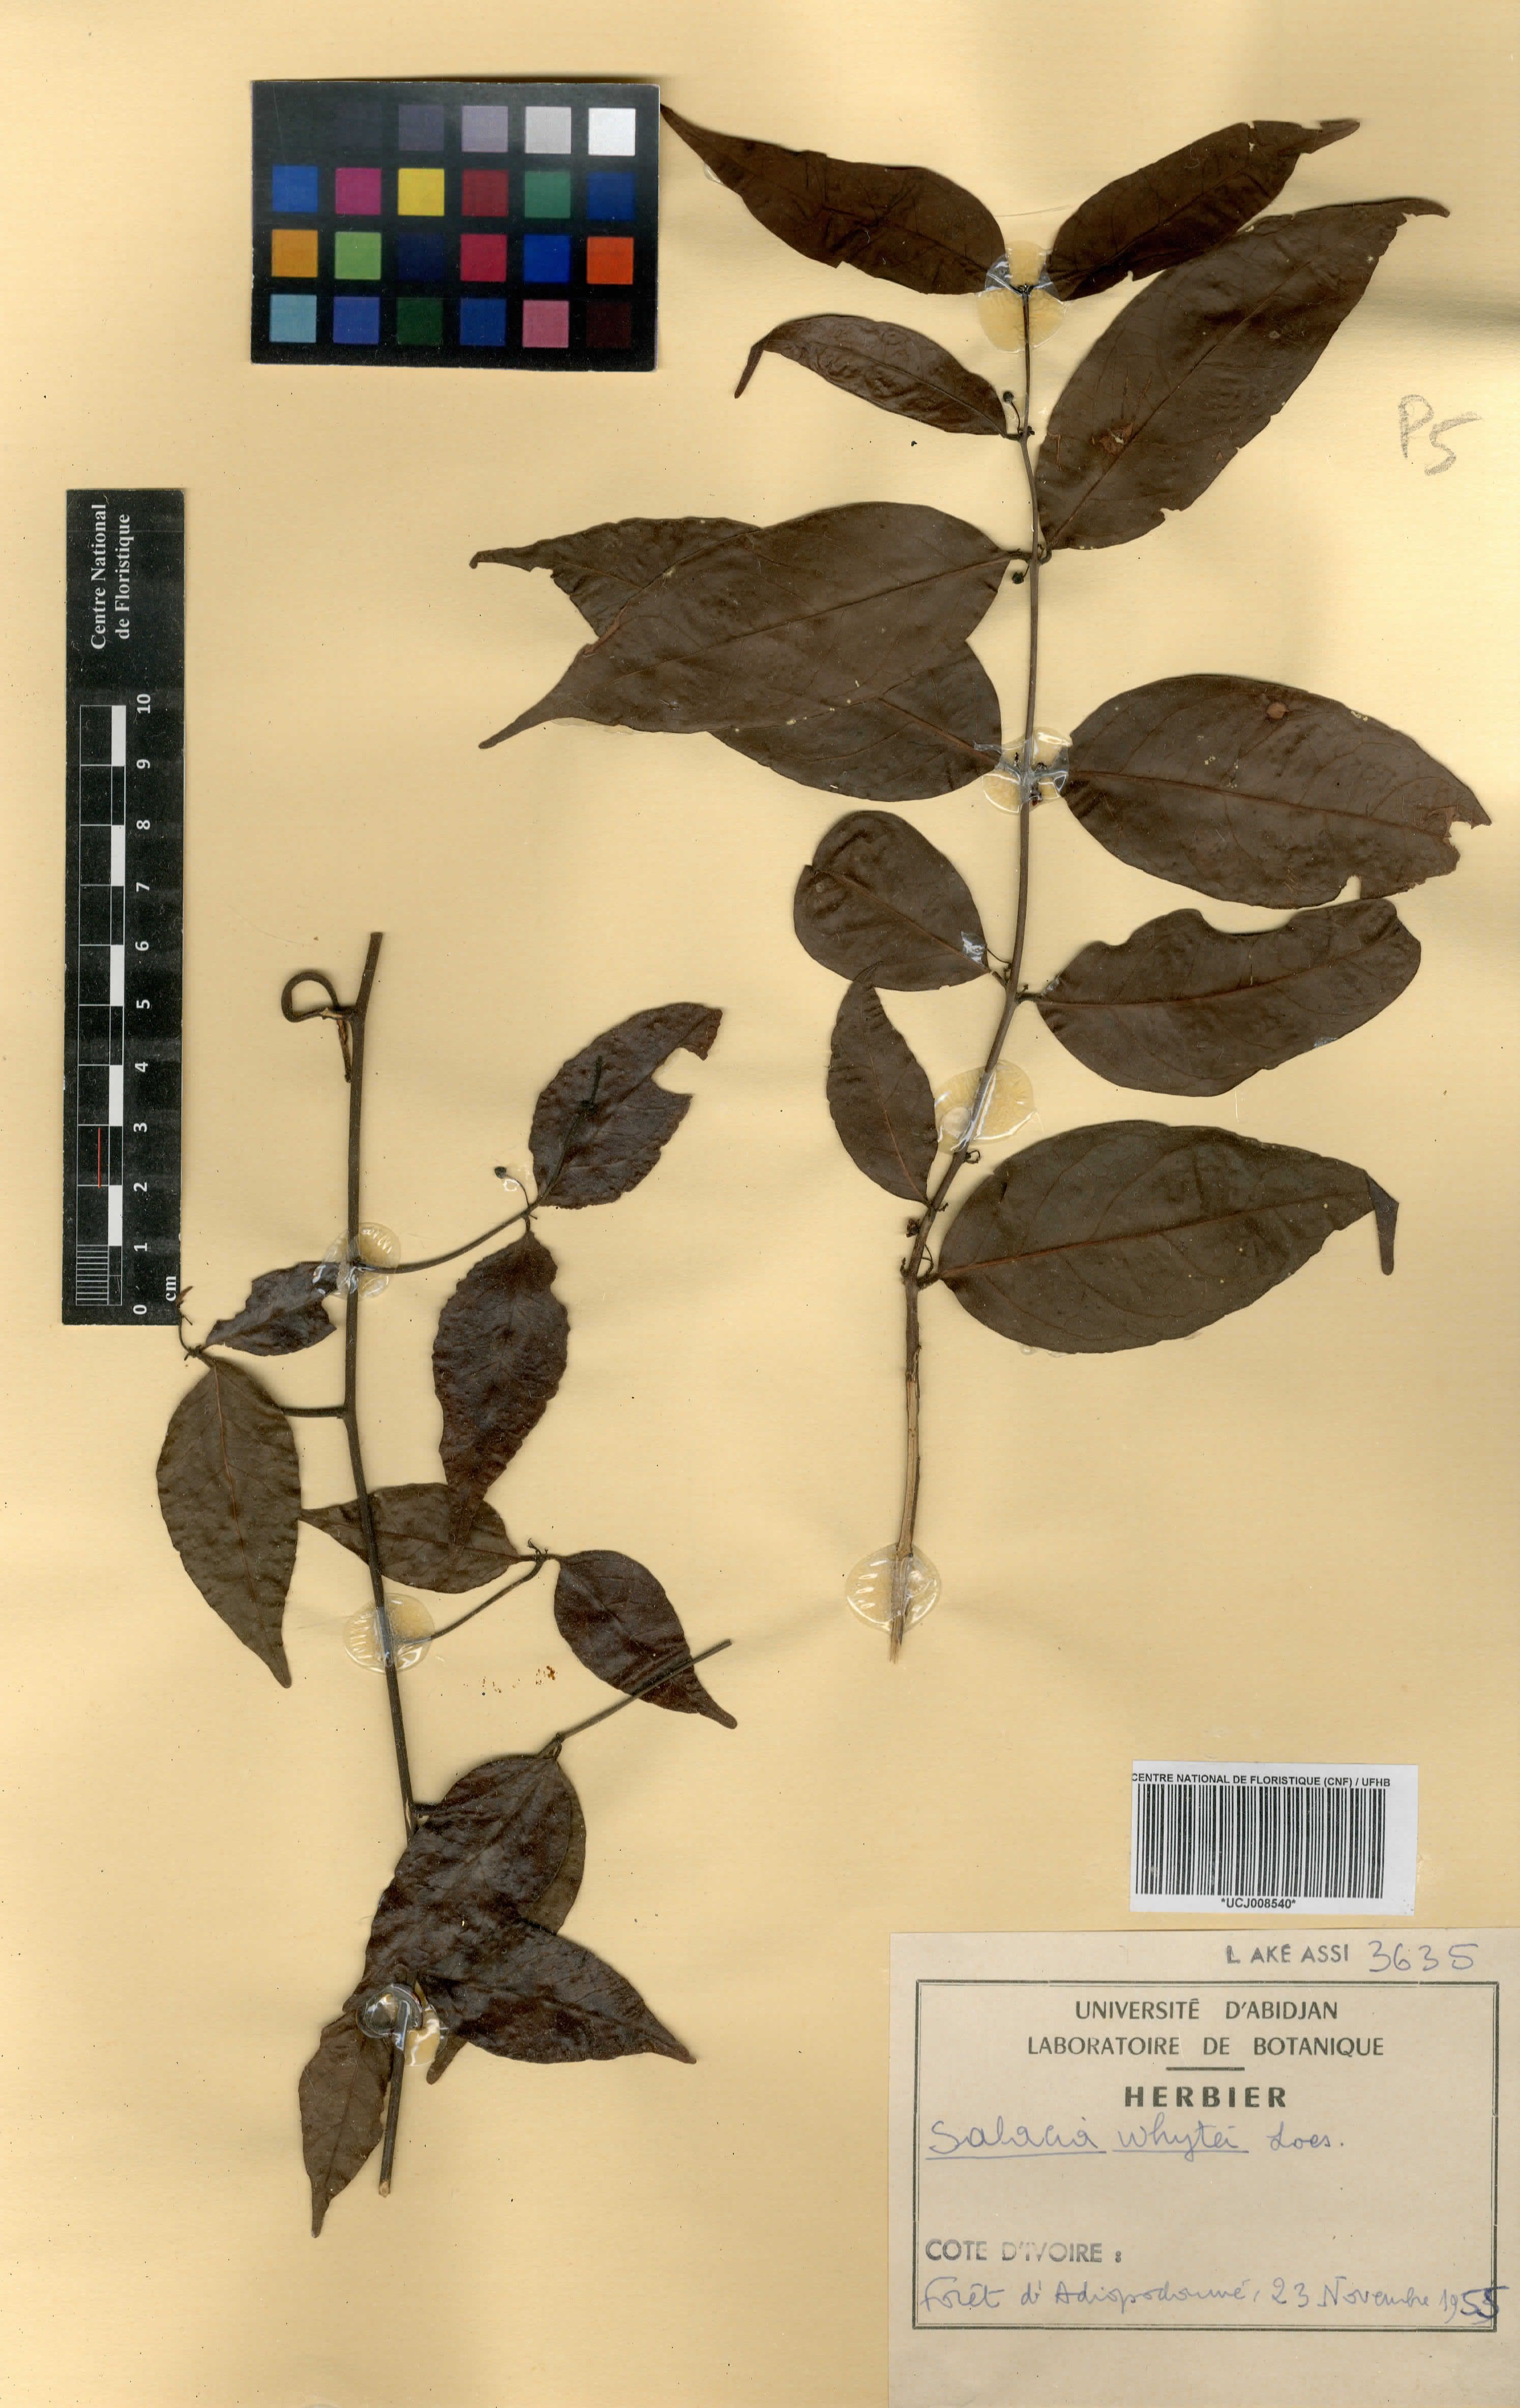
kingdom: Plantae
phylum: Tracheophyta
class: Magnoliopsida
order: Celastrales
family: Celastraceae
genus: Salacia
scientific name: Salacia whytei
